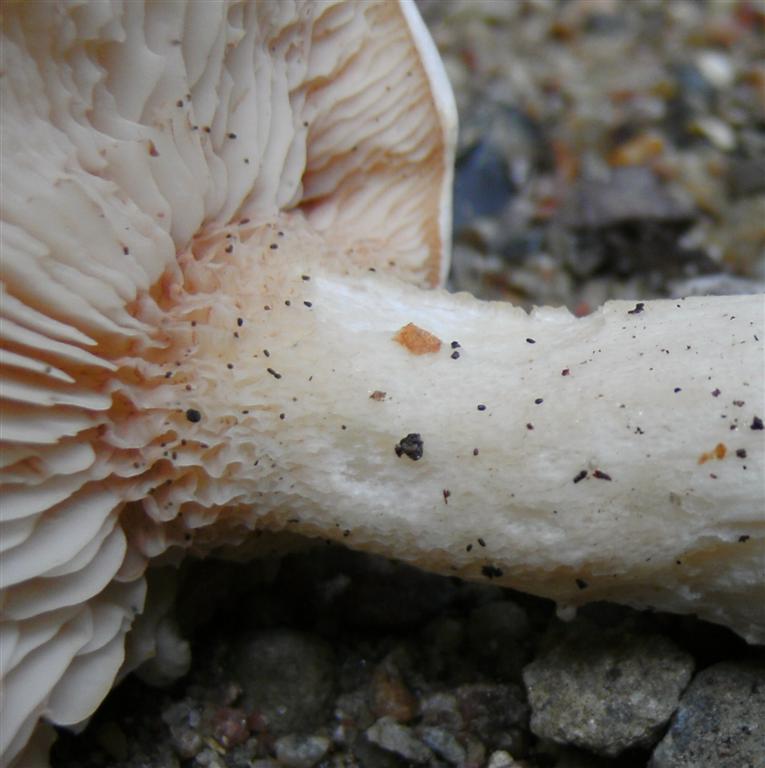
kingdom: Fungi
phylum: Basidiomycota
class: Agaricomycetes
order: Agaricales
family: Entolomataceae
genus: Clitopilus
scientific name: Clitopilus prunulus
